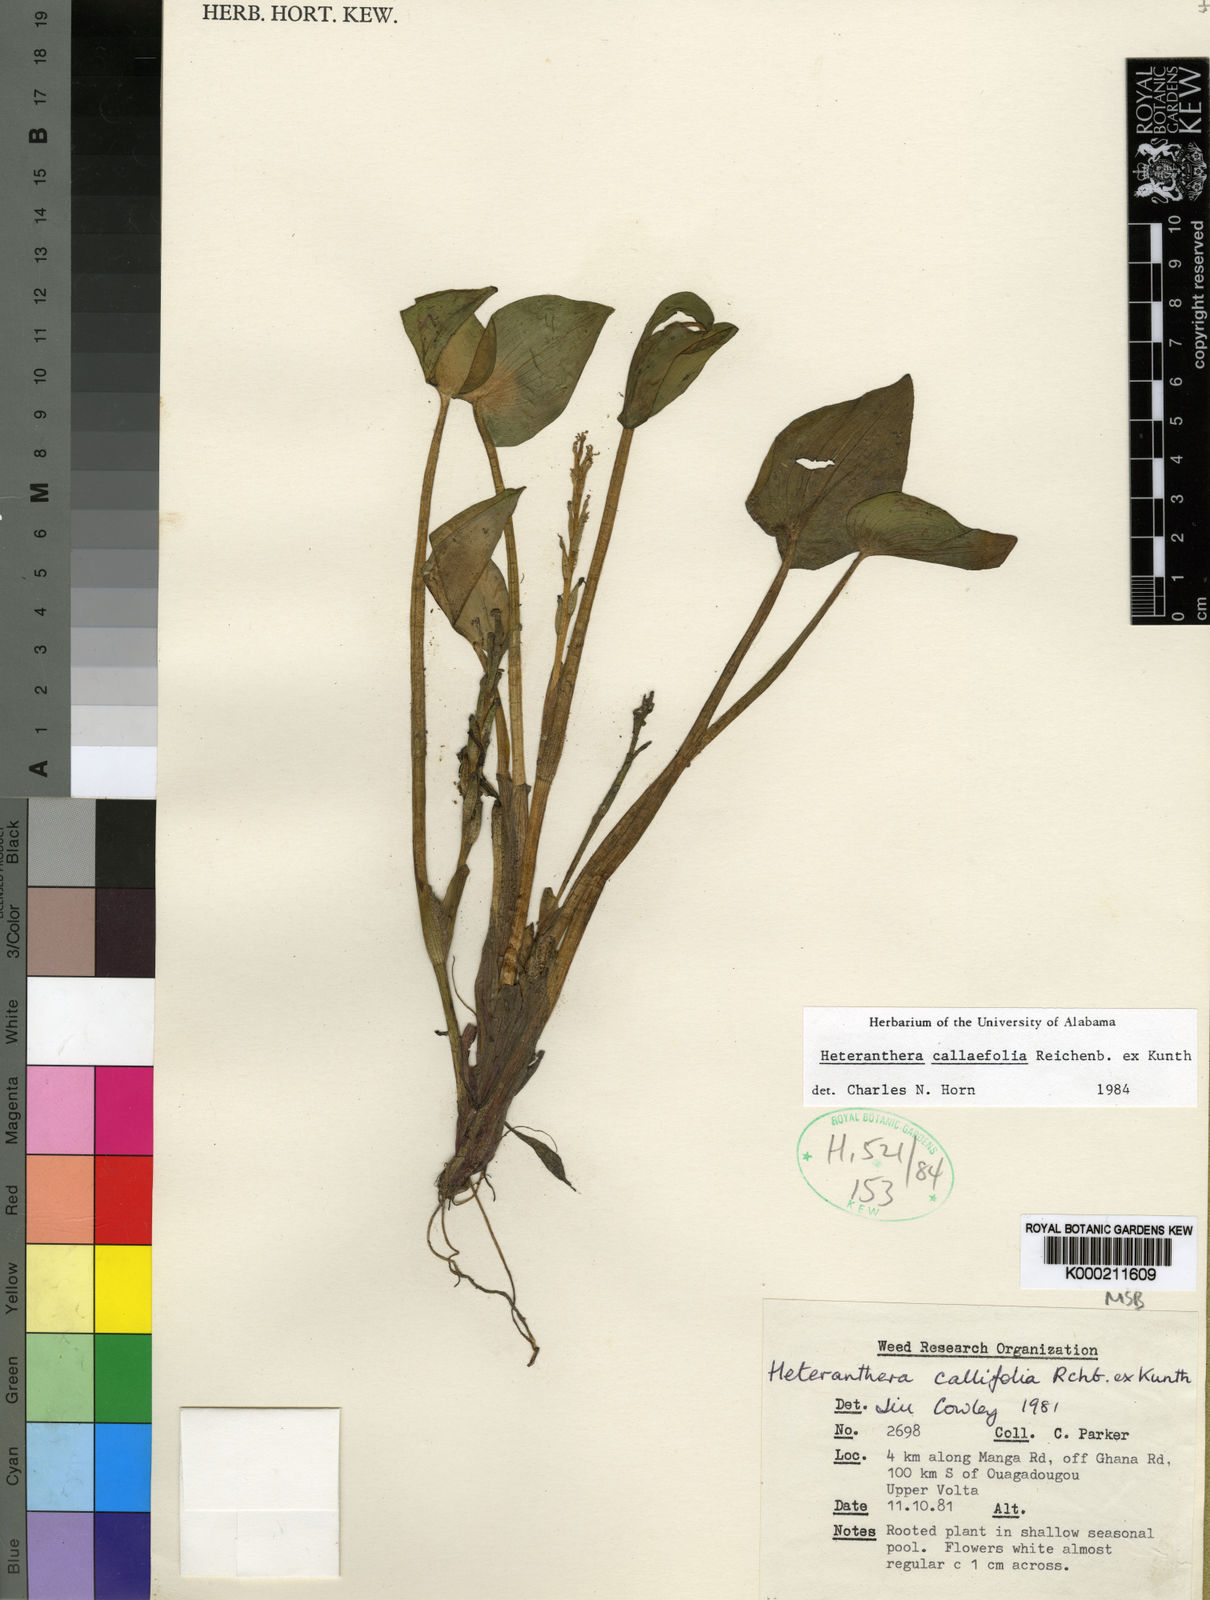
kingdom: Plantae
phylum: Tracheophyta
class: Liliopsida
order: Commelinales
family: Pontederiaceae
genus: Heteranthera
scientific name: Heteranthera callifolia
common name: Mud plantain
